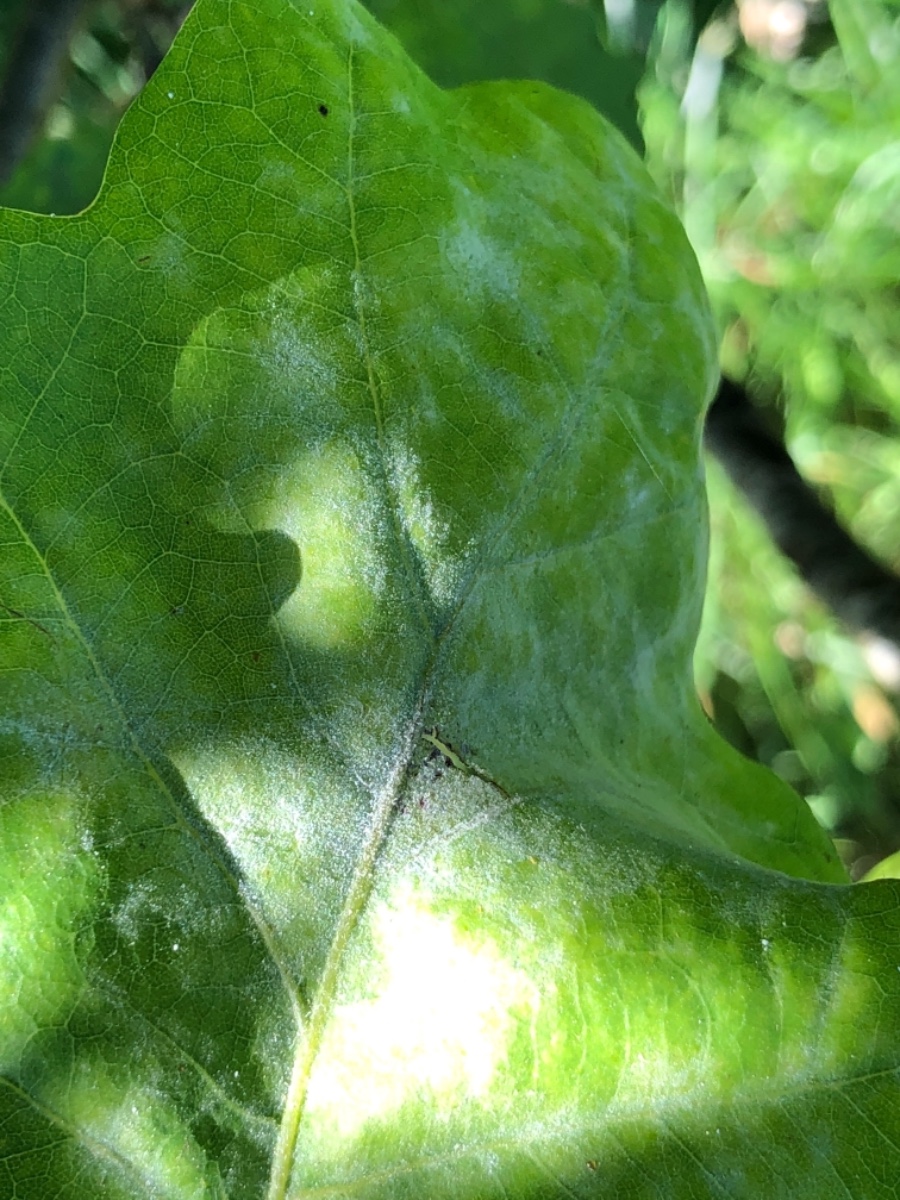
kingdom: Fungi
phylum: Ascomycota
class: Leotiomycetes
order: Helotiales
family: Erysiphaceae
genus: Erysiphe
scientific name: Erysiphe alphitoides
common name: ege-meldug
